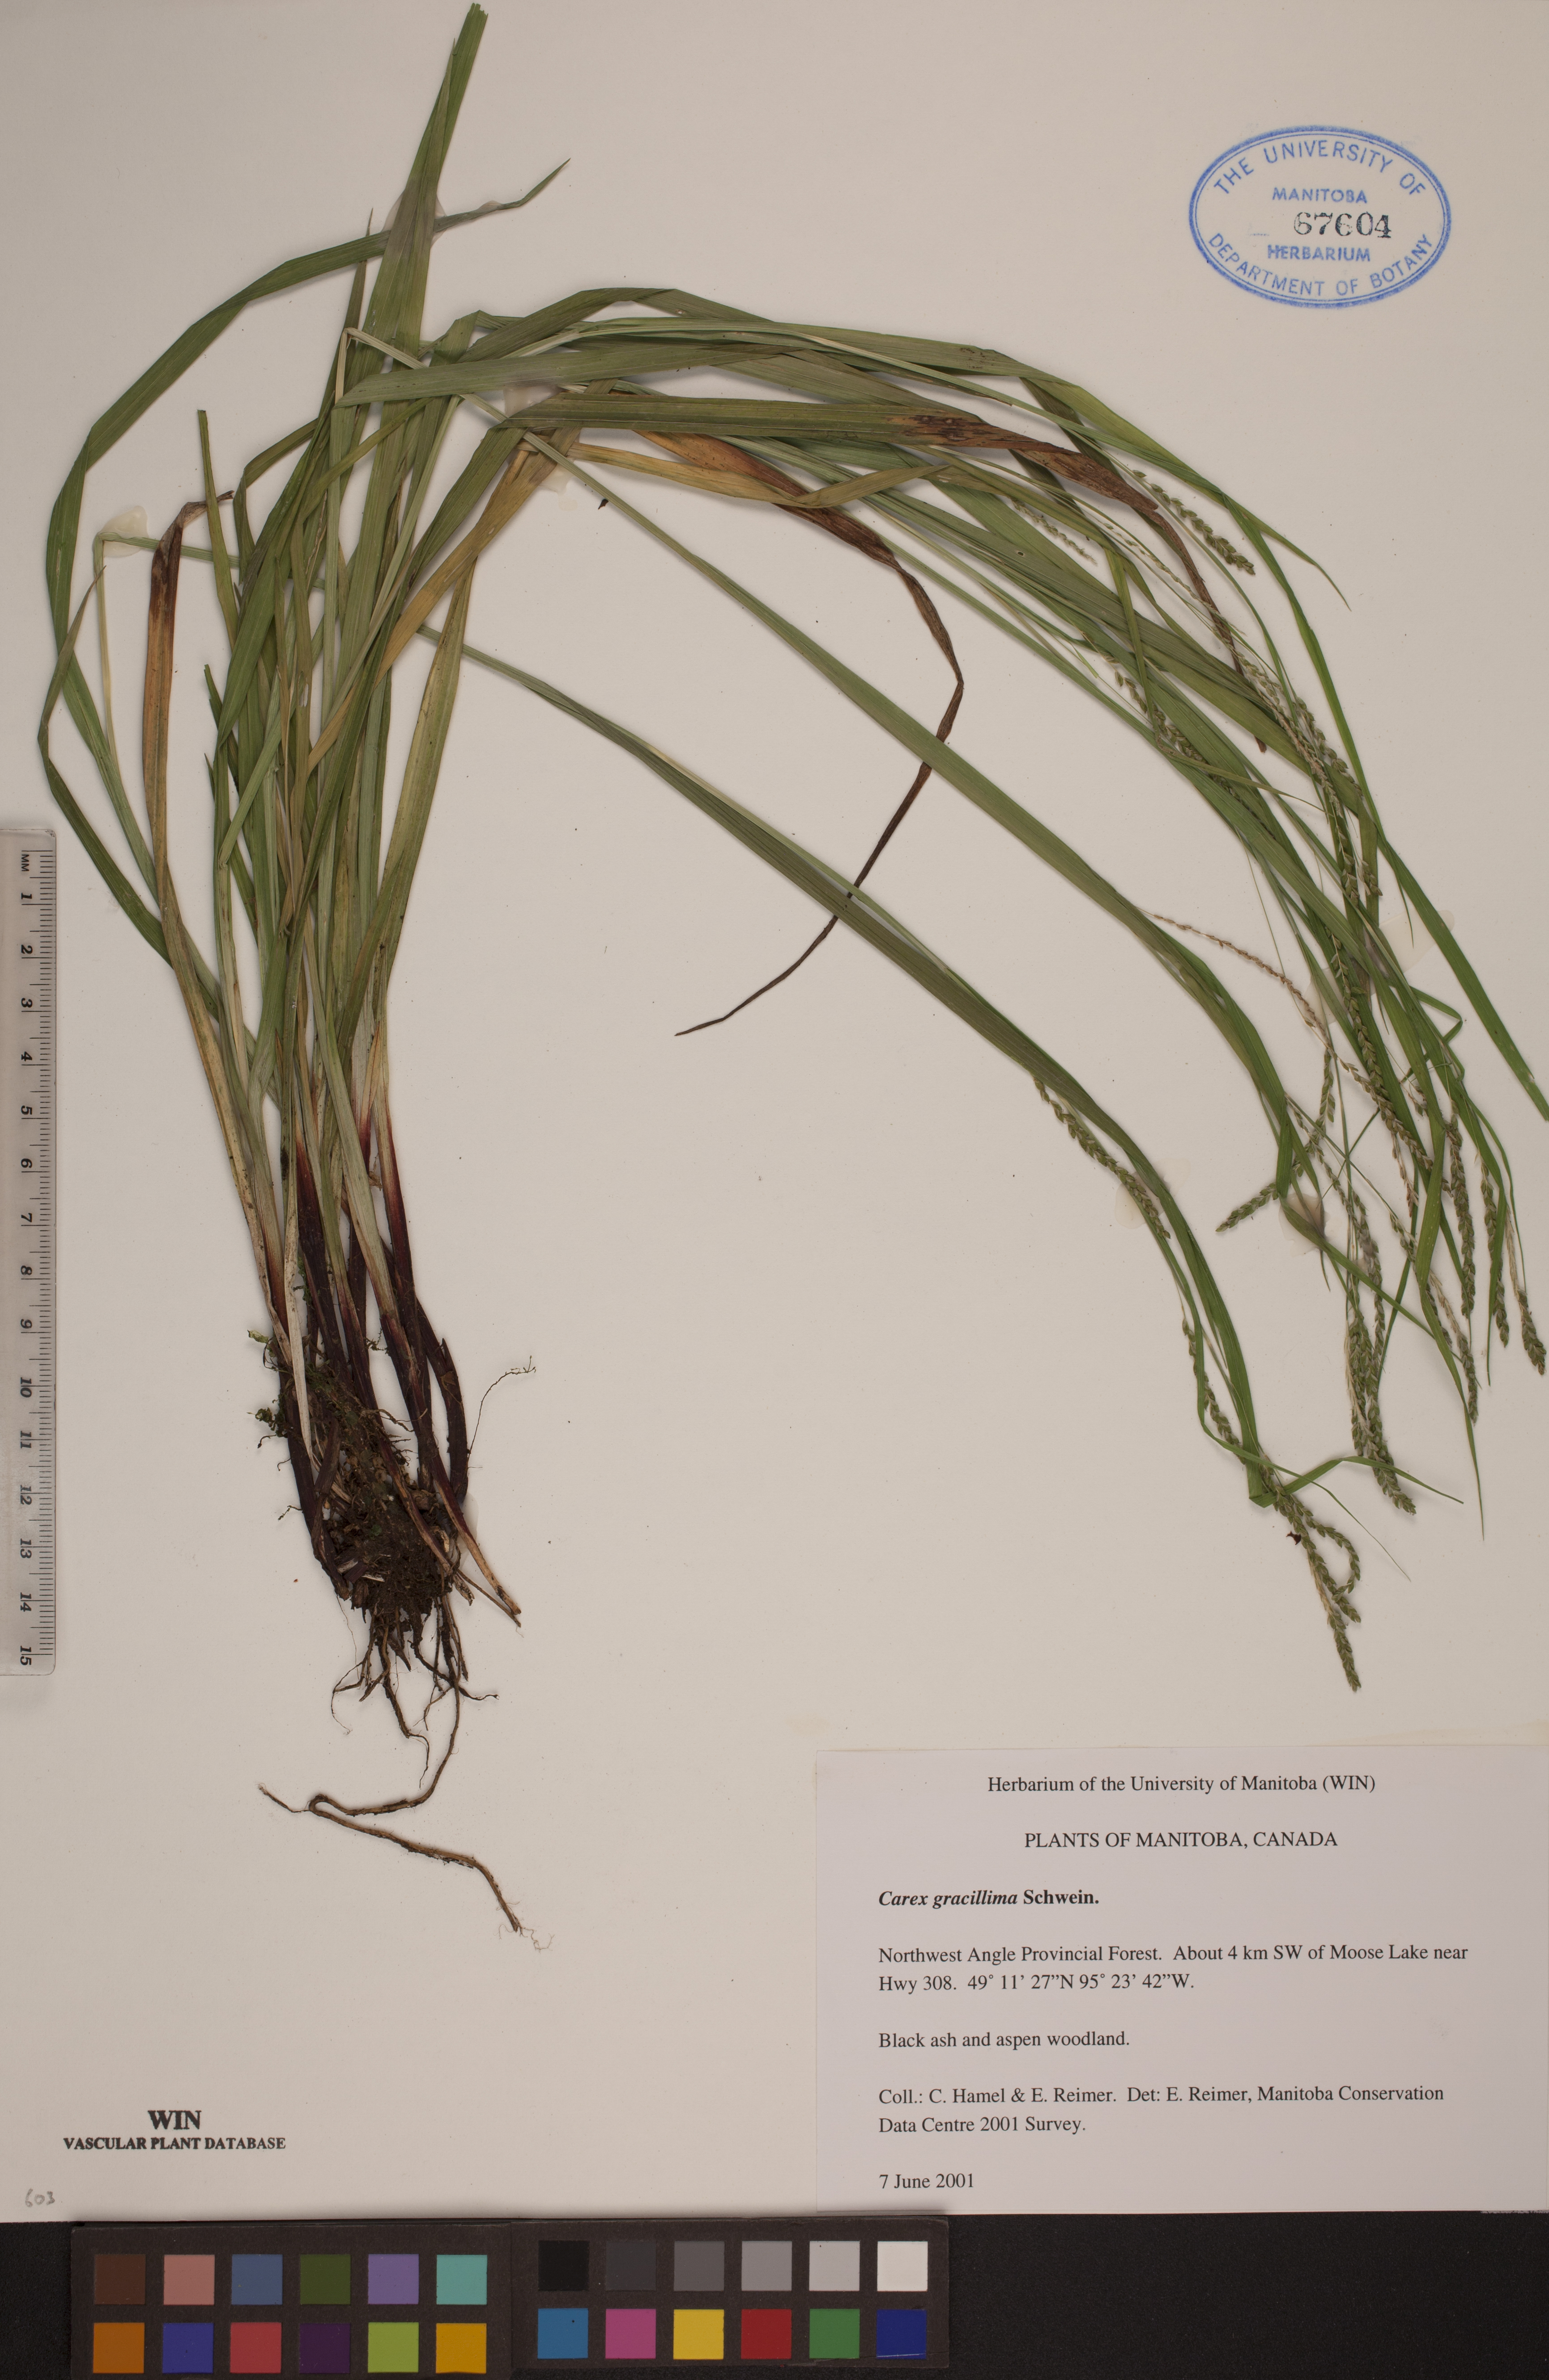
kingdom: Plantae
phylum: Tracheophyta
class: Liliopsida
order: Poales
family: Cyperaceae
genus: Carex
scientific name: Carex gracillima
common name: Graceful sedge
